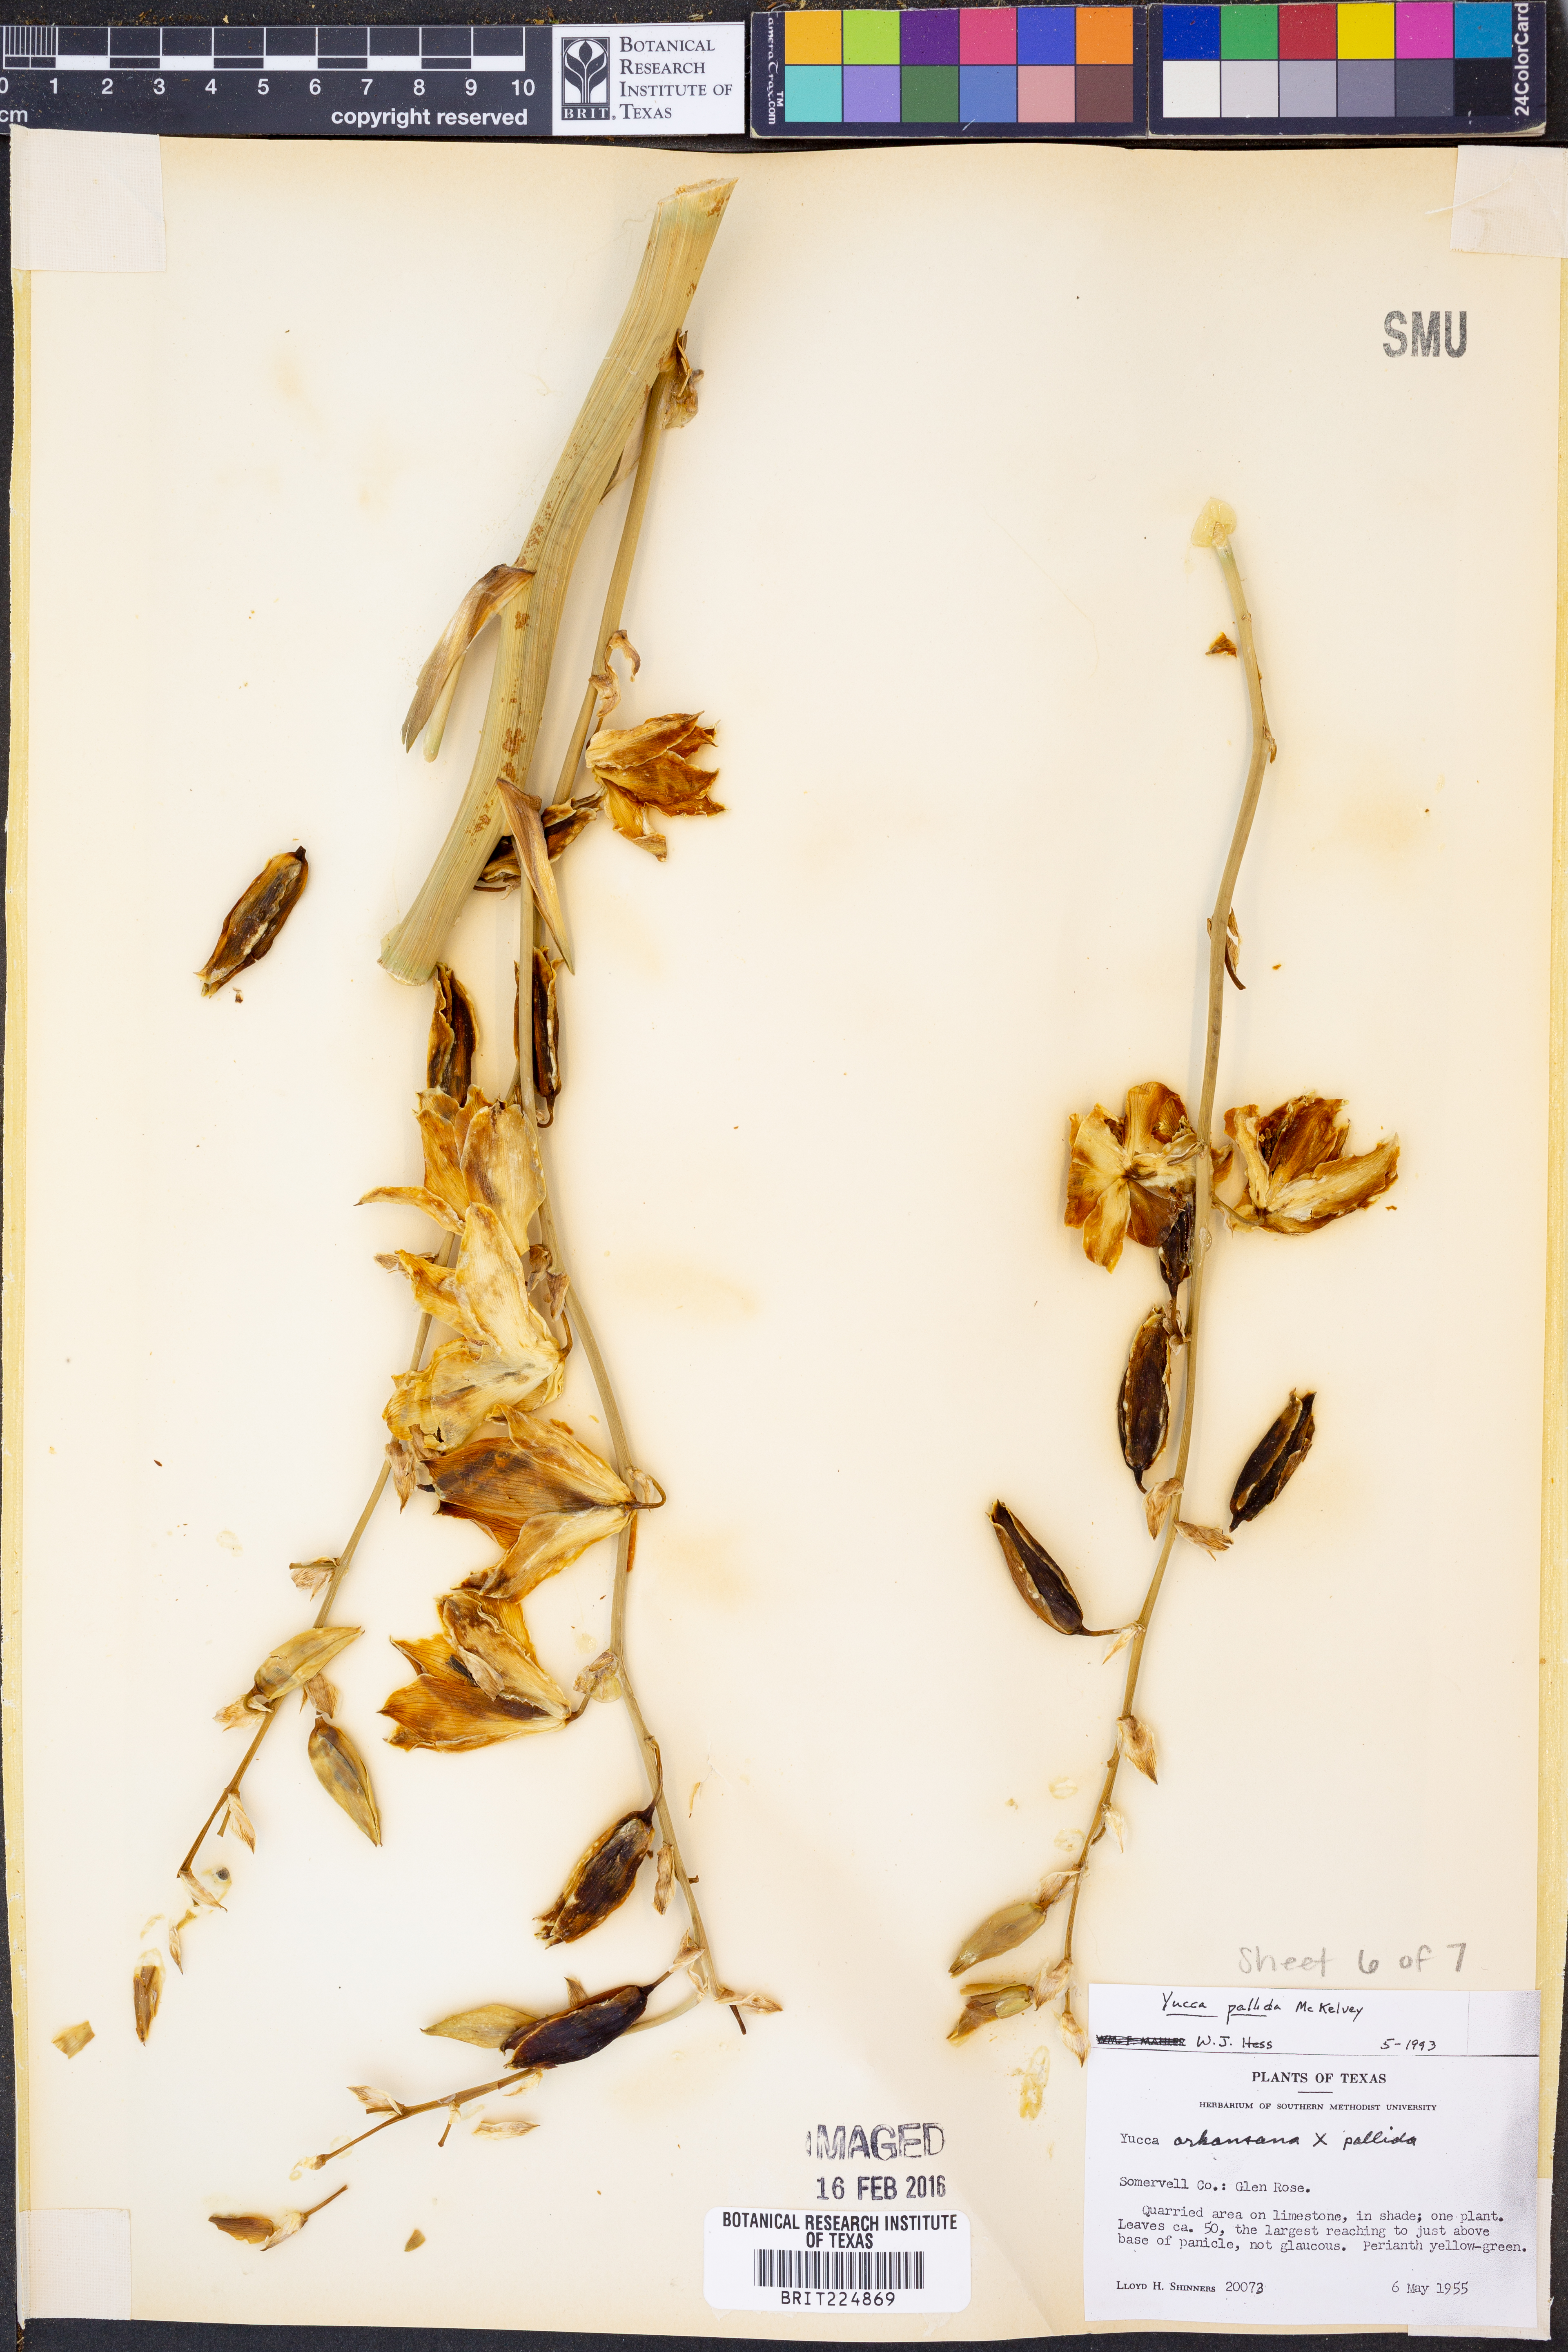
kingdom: Plantae
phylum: Tracheophyta
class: Liliopsida
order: Asparagales
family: Asparagaceae
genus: Yucca
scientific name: Yucca pallida
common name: Pale leaf yucca
